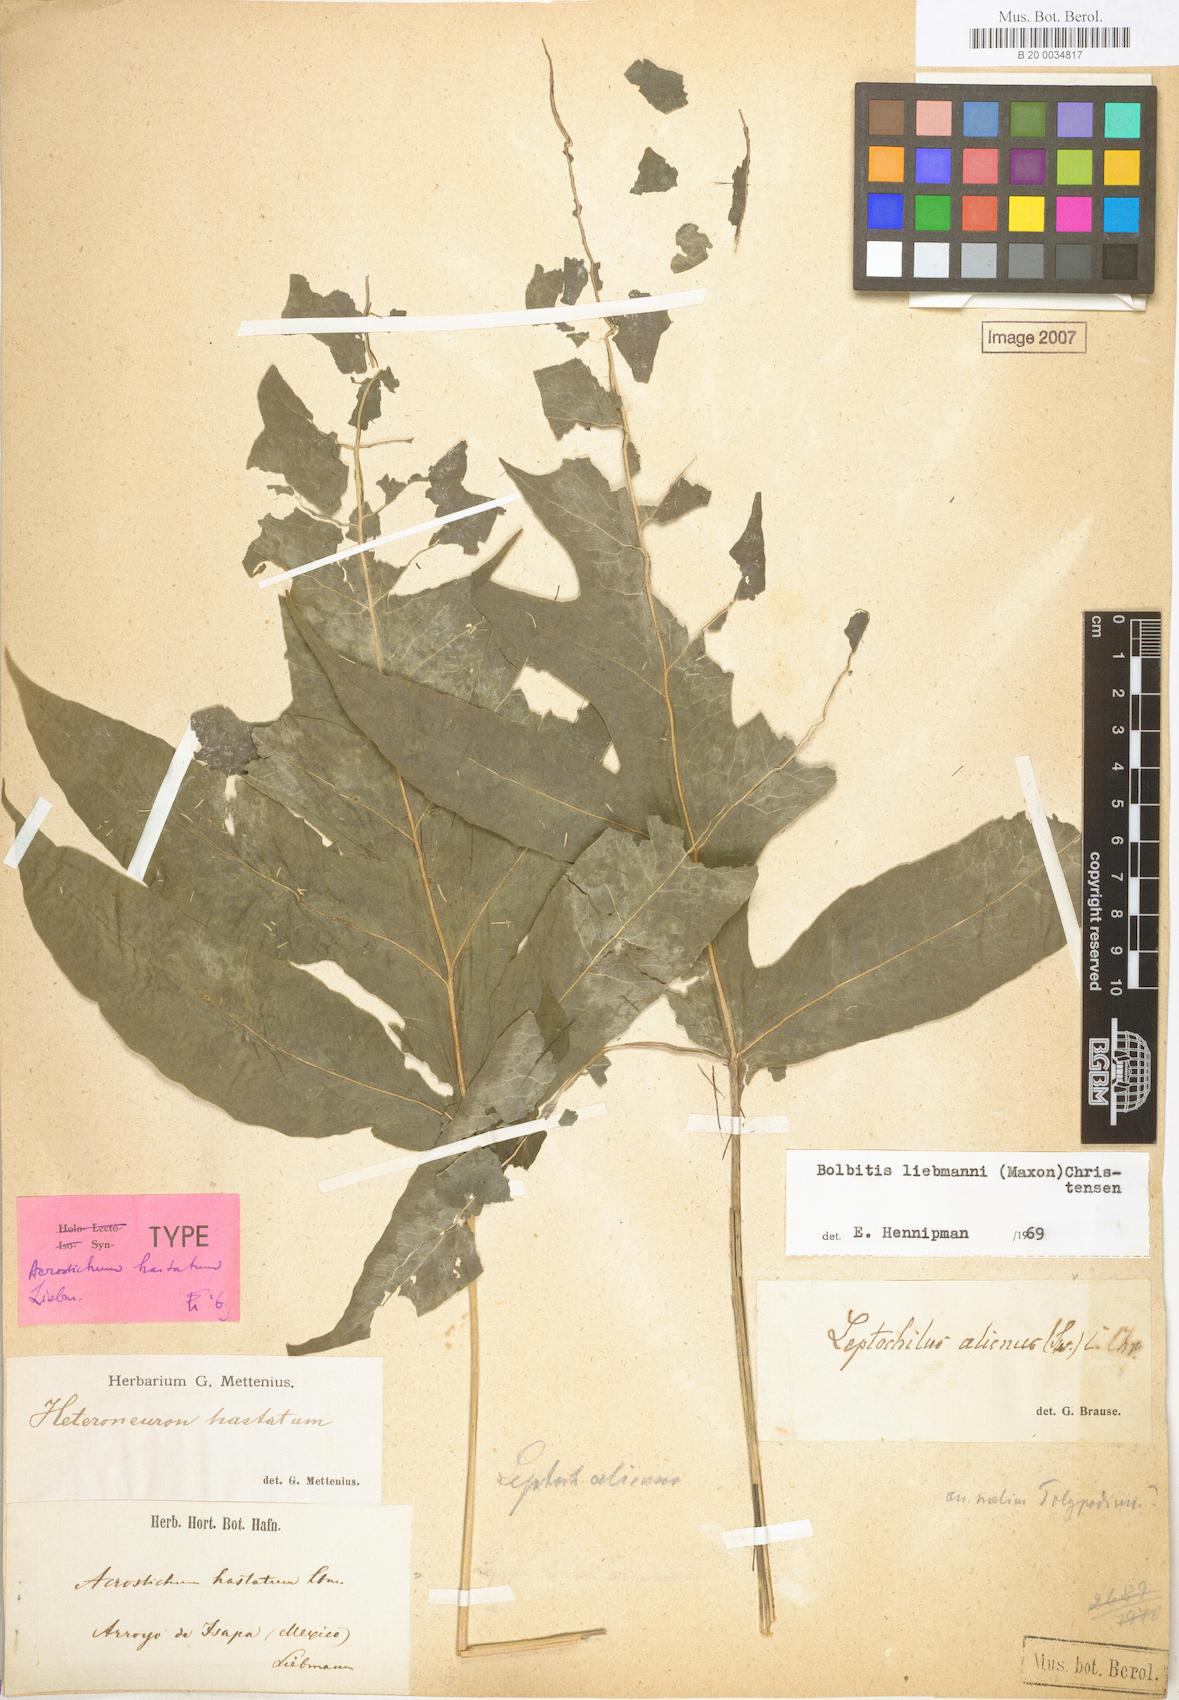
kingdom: Plantae
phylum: Tracheophyta
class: Polypodiopsida
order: Polypodiales
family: Dryopteridaceae
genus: Bolbitis
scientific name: Bolbitis hastata
